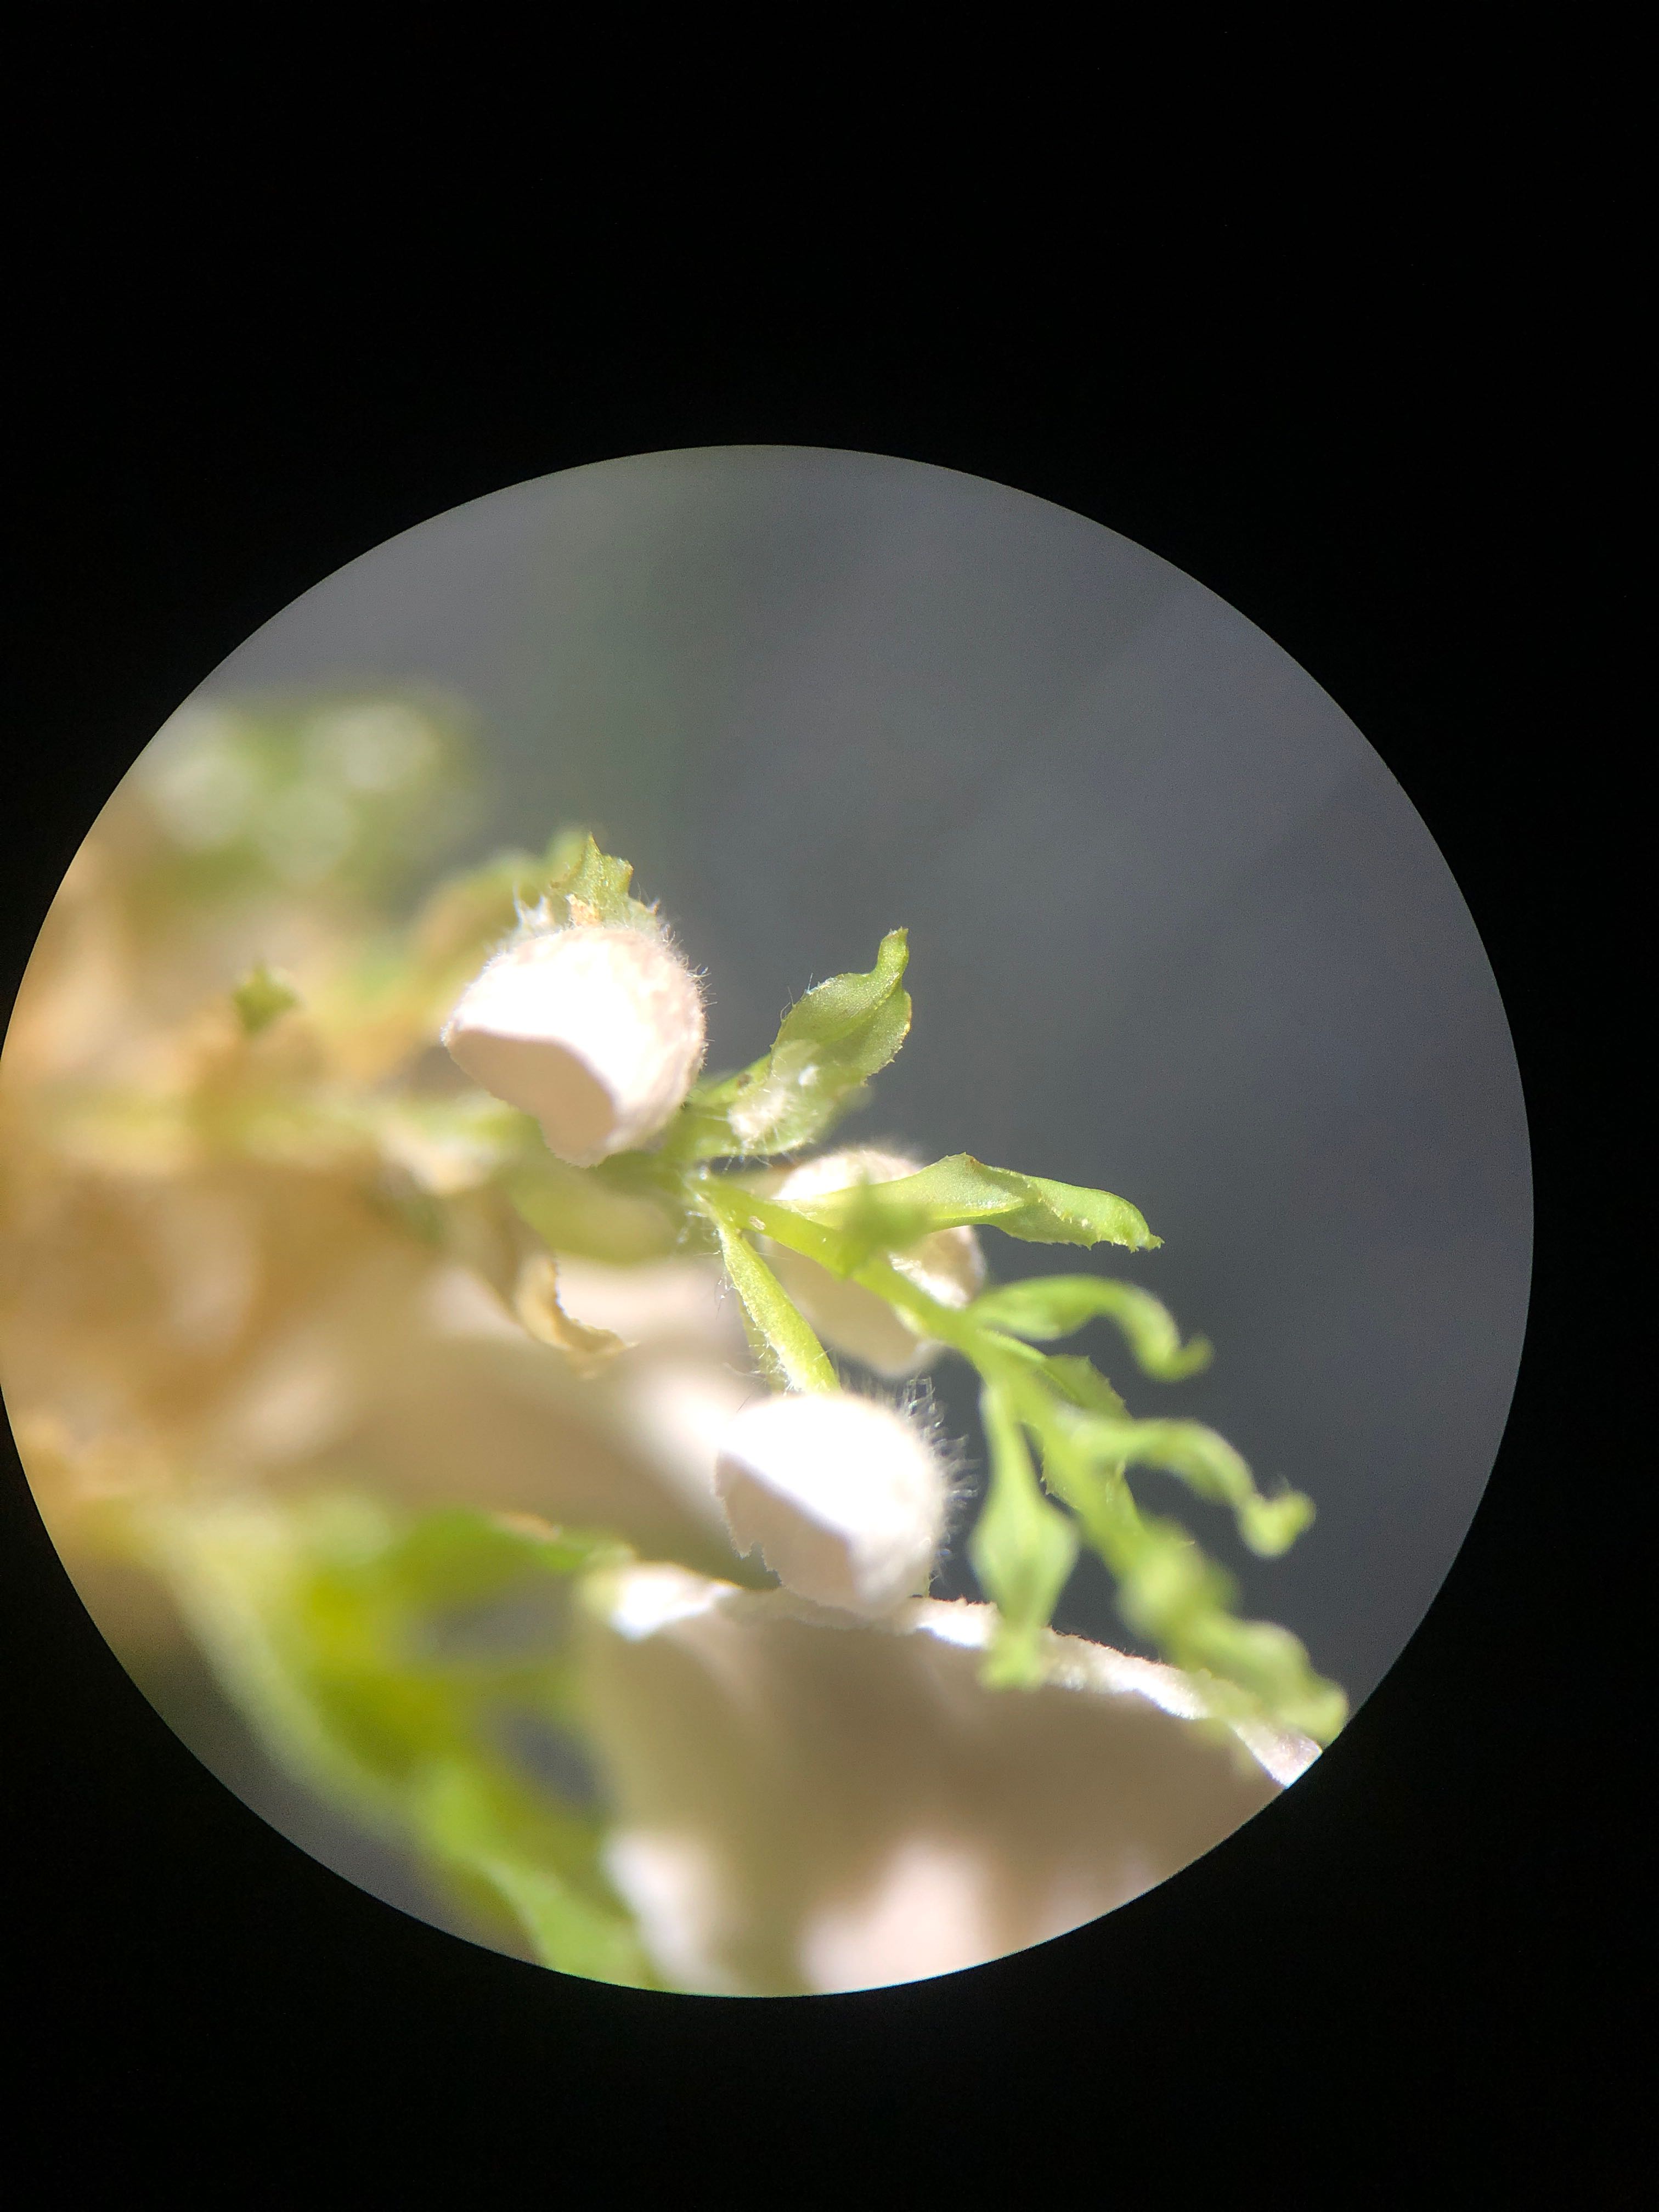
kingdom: Fungi
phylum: Basidiomycota
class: Agaricomycetes
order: Agaricales
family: Hygrophoraceae
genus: Arrhenia
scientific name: Arrhenia retiruga
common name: lille fontænehat
